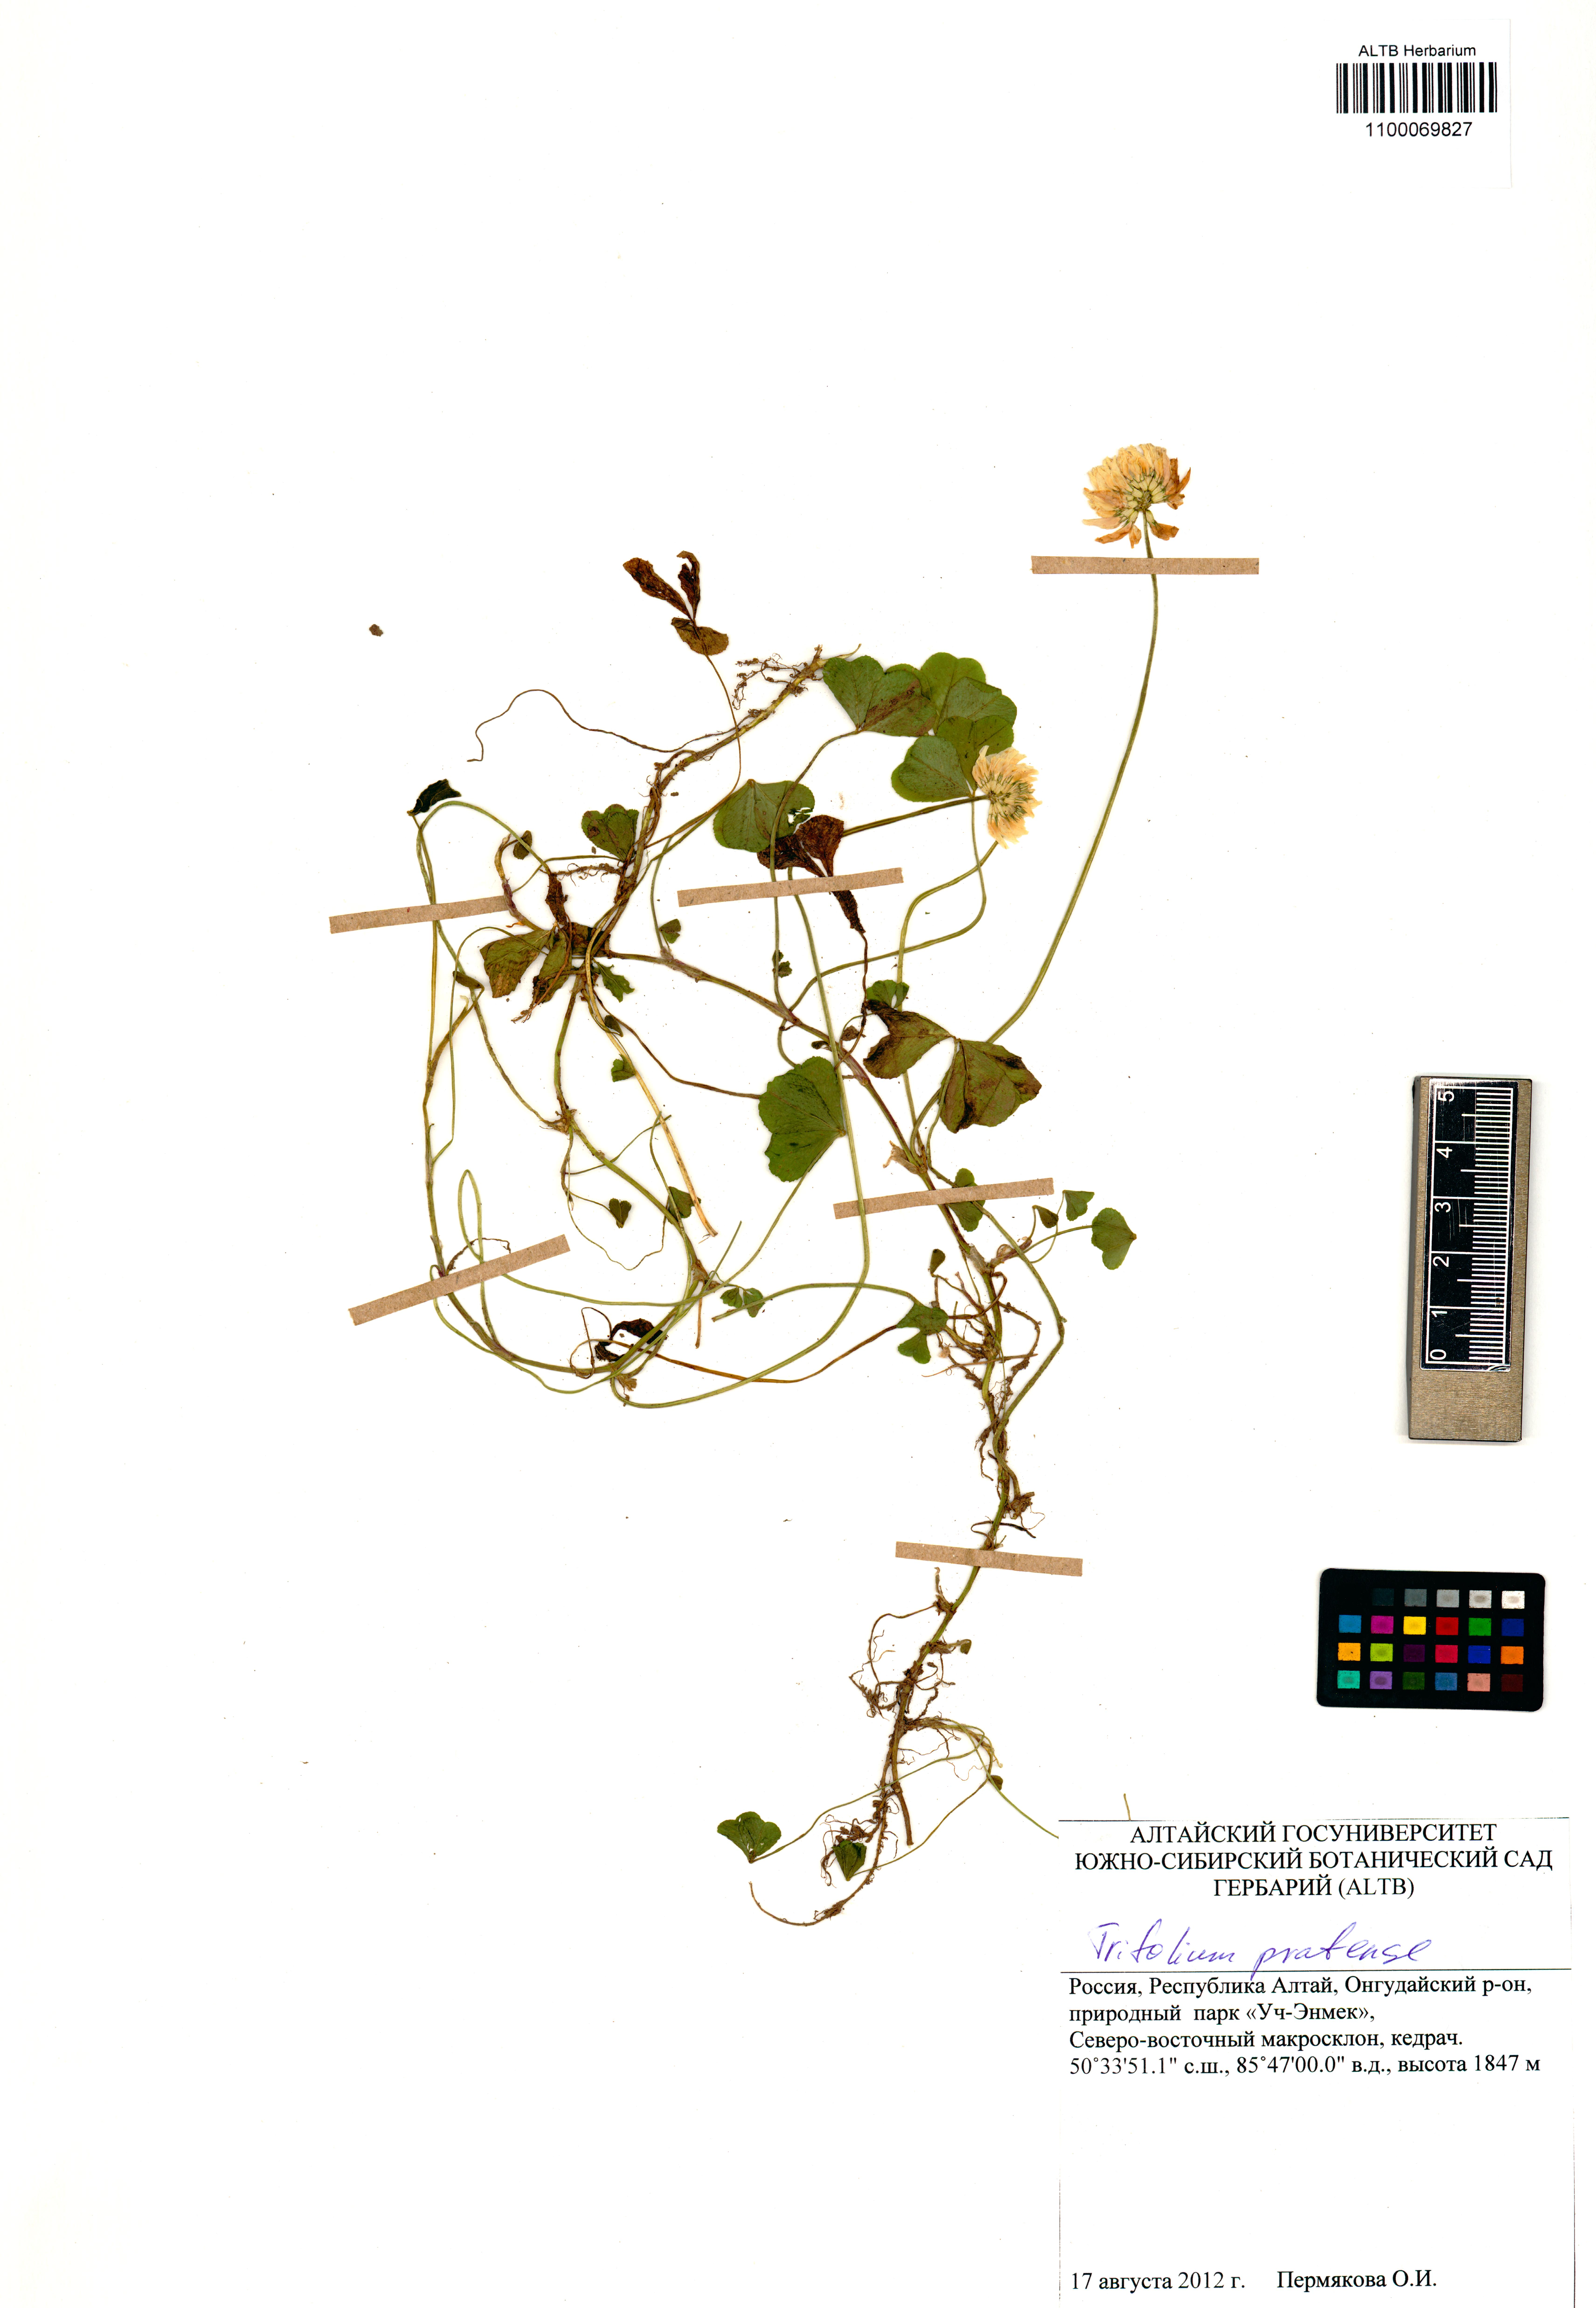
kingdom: Plantae
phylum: Tracheophyta
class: Magnoliopsida
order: Fabales
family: Fabaceae
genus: Trifolium
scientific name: Trifolium pratense
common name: Red clover
